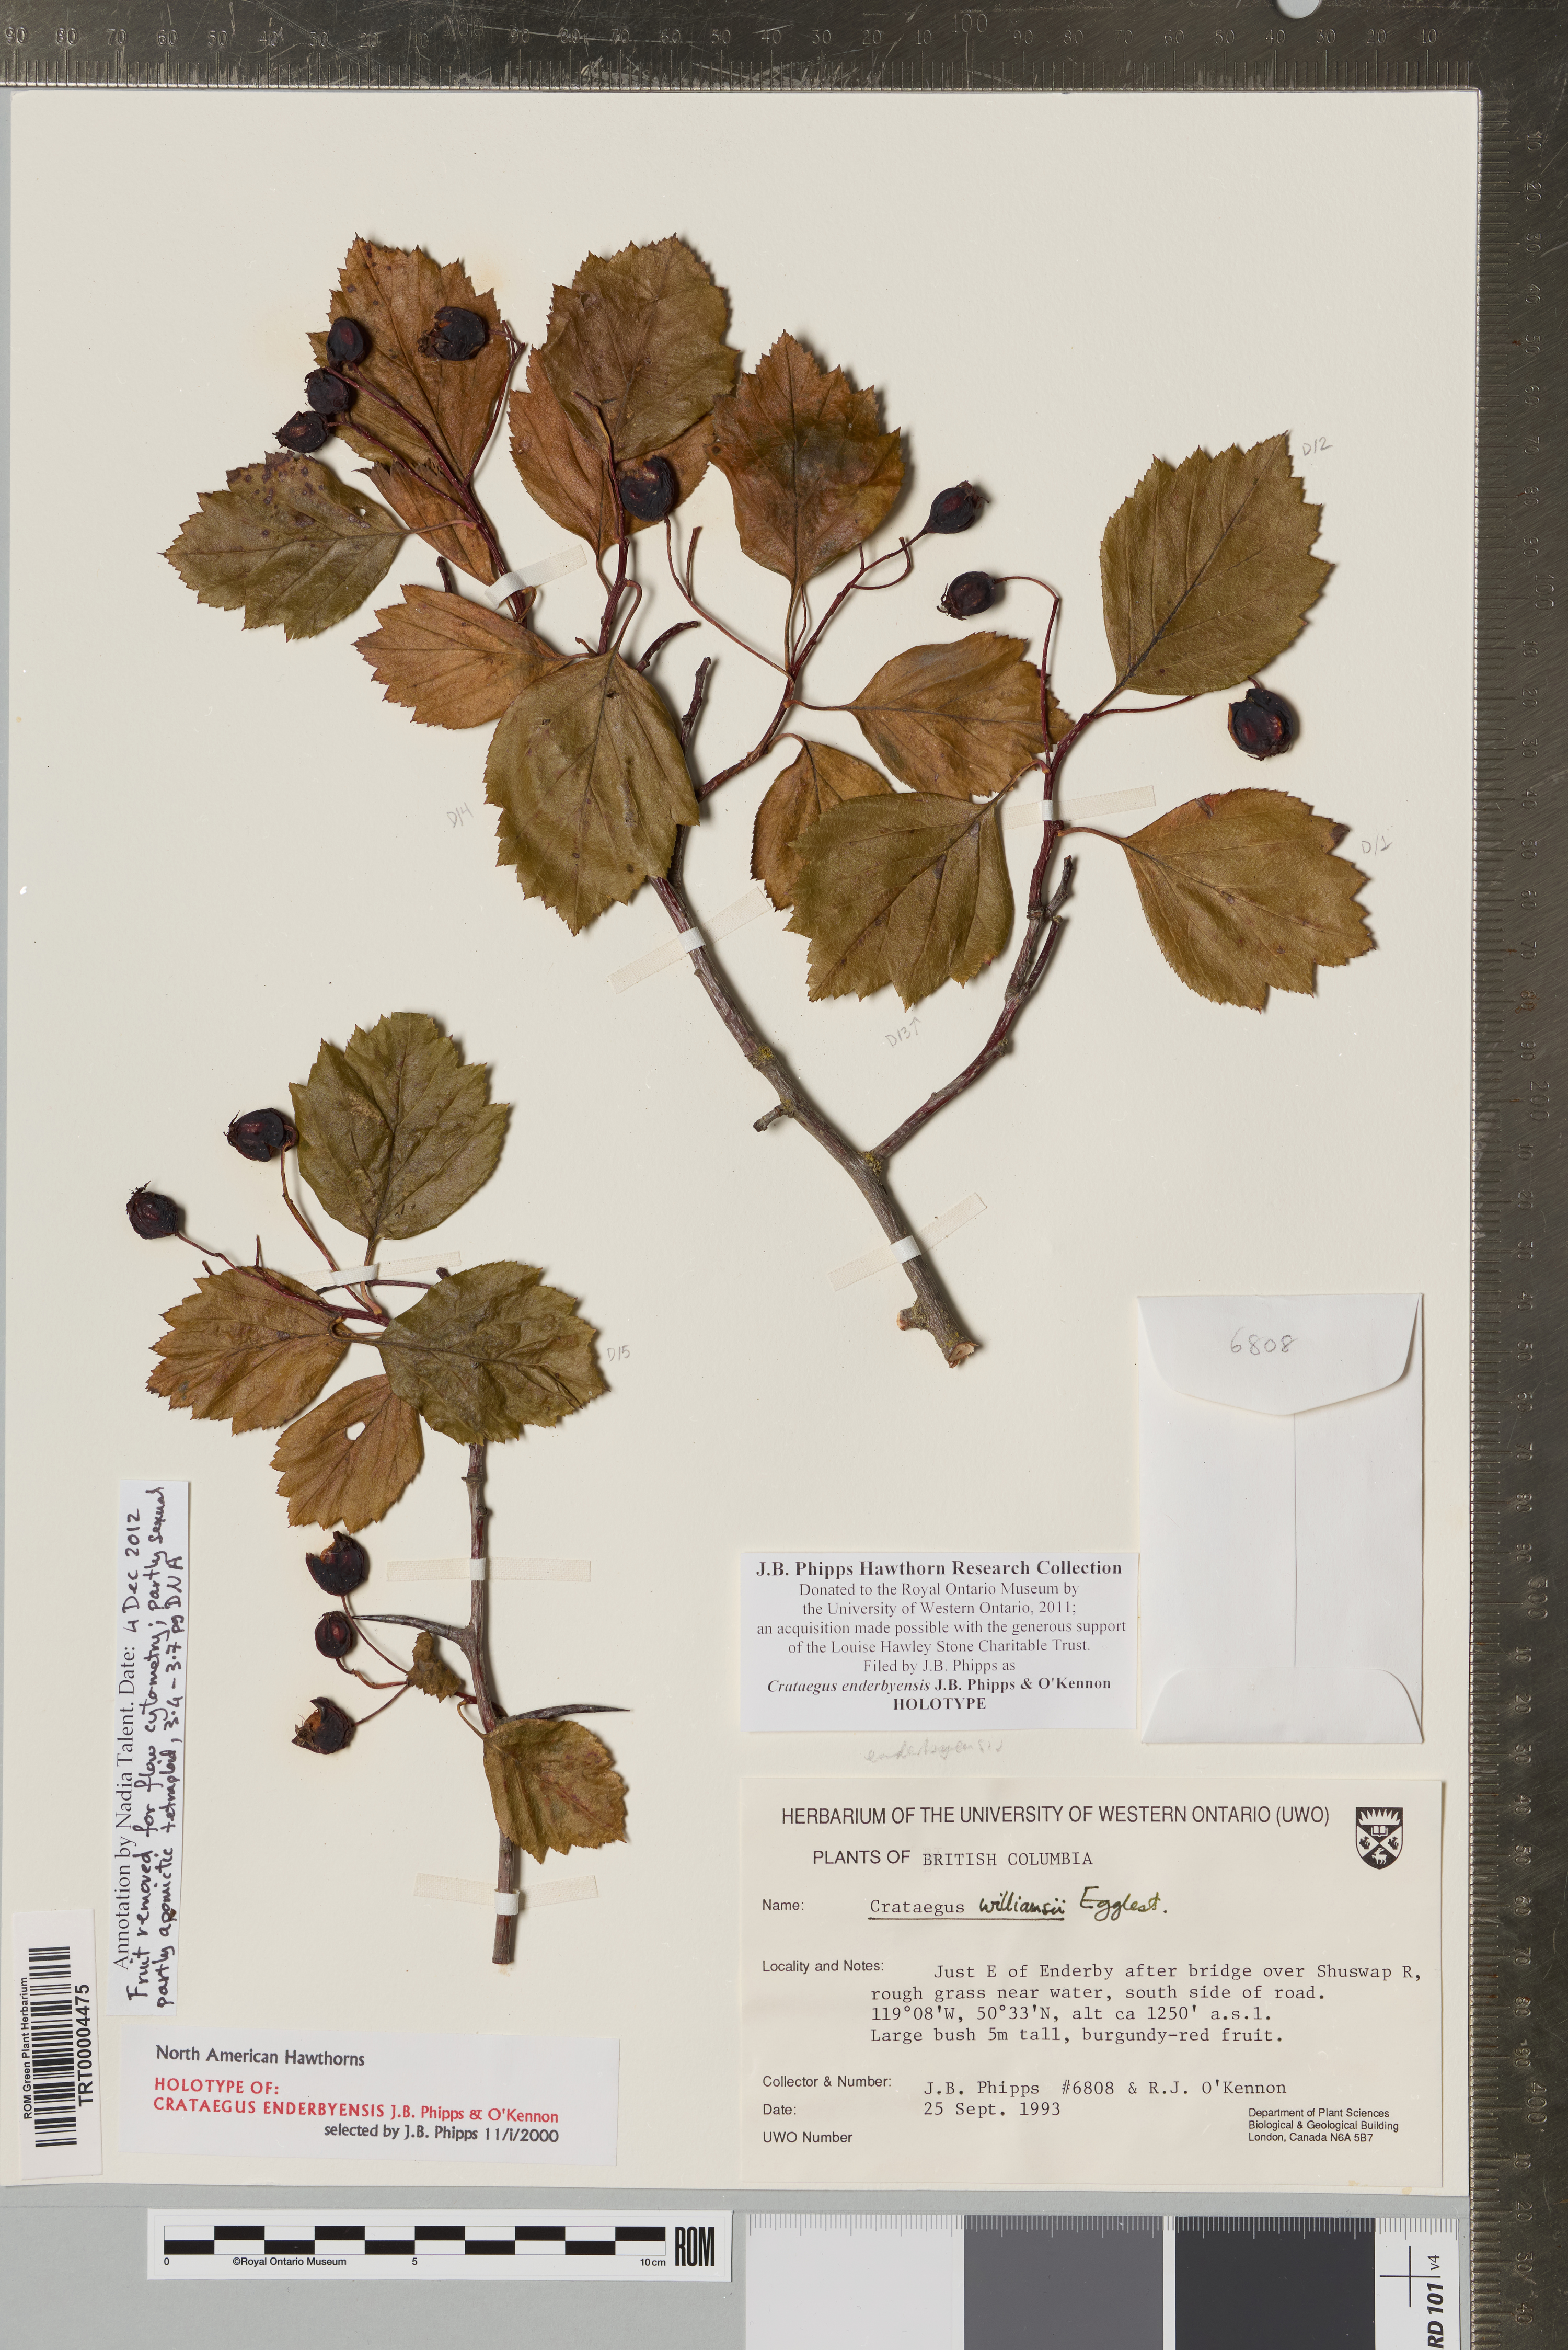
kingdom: Plantae
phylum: Tracheophyta
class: Magnoliopsida
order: Rosales
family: Rosaceae
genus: Crataegus
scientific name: Crataegus enderbyensis
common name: Enderby hawthorn
